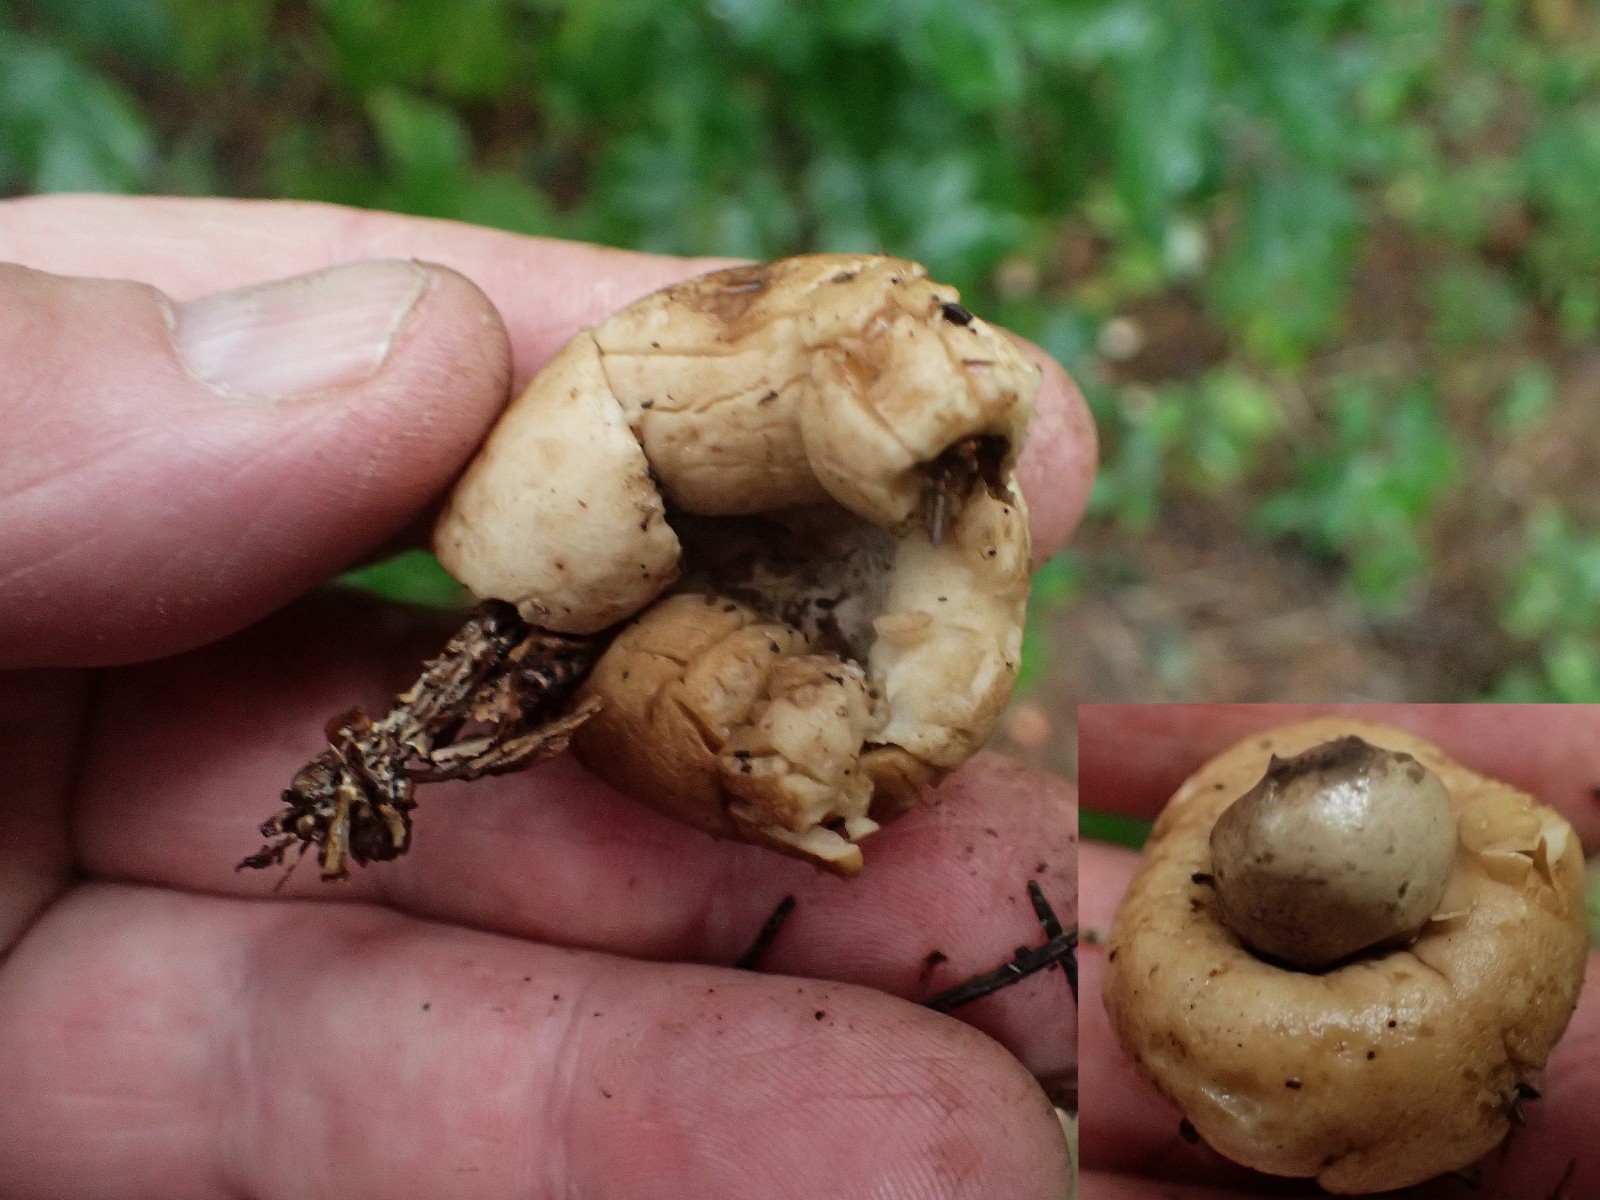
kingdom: Fungi
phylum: Basidiomycota
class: Agaricomycetes
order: Geastrales
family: Geastraceae
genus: Geastrum
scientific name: Geastrum fimbriatum
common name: frynset stjernebold
